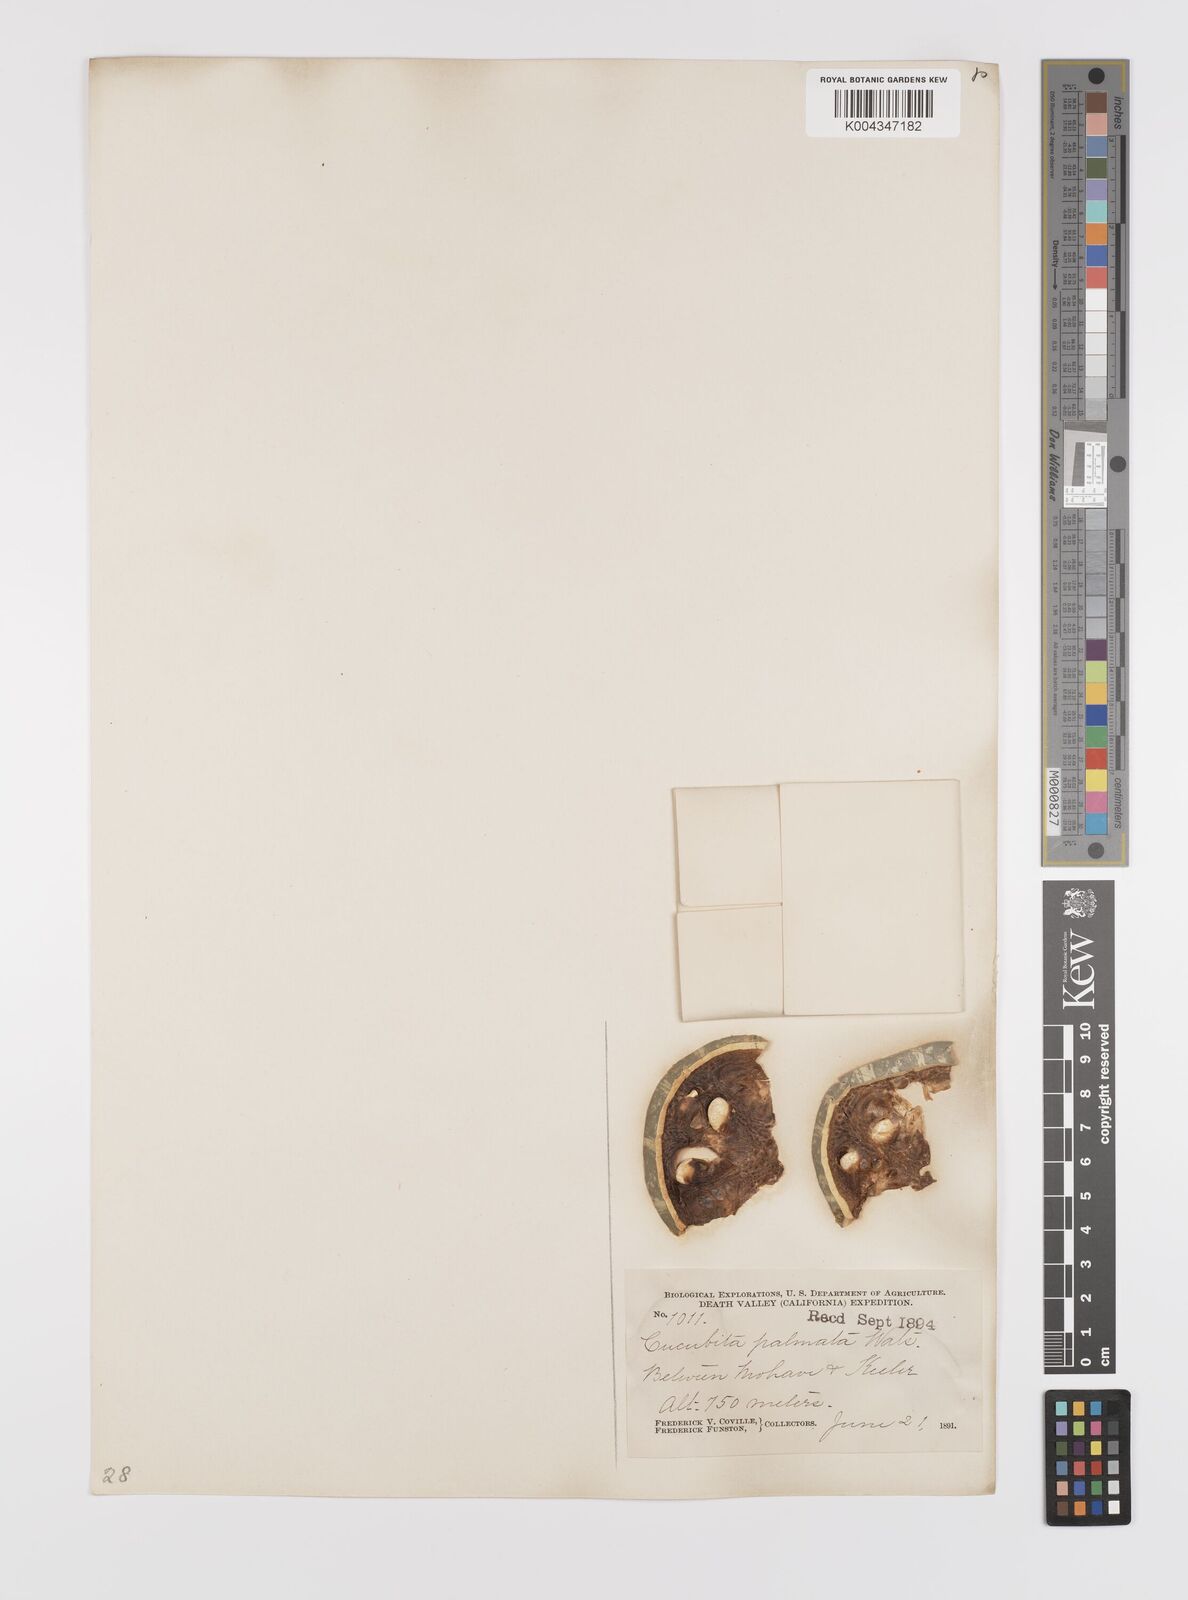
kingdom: Plantae
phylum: Tracheophyta
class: Magnoliopsida
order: Cucurbitales
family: Cucurbitaceae
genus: Cucurbita
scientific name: Cucurbita palmata
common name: Coyote-melon
